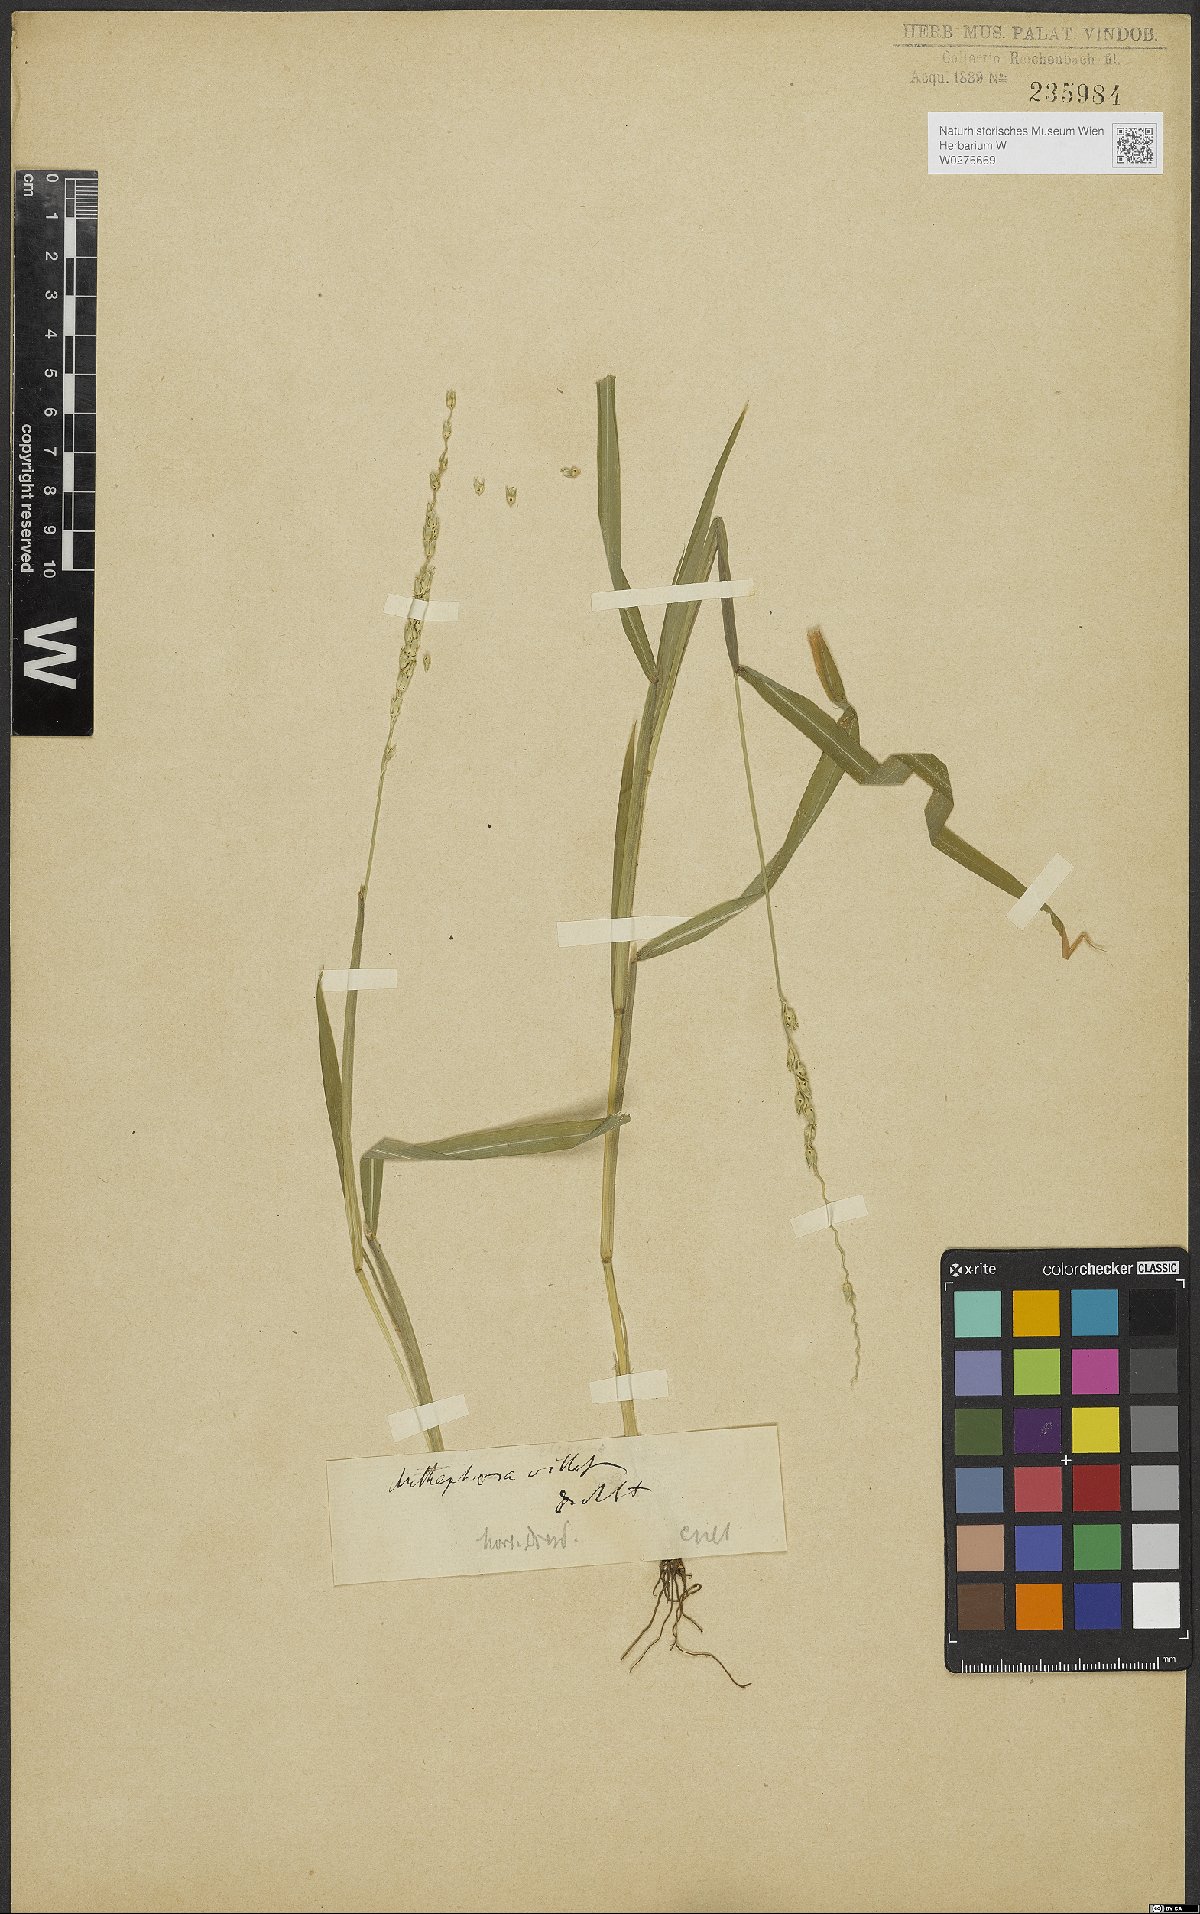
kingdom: Plantae
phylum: Tracheophyta
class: Liliopsida
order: Poales
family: Poaceae
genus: Anthephora
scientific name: Anthephora hermaphrodita
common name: Oldfield grass
